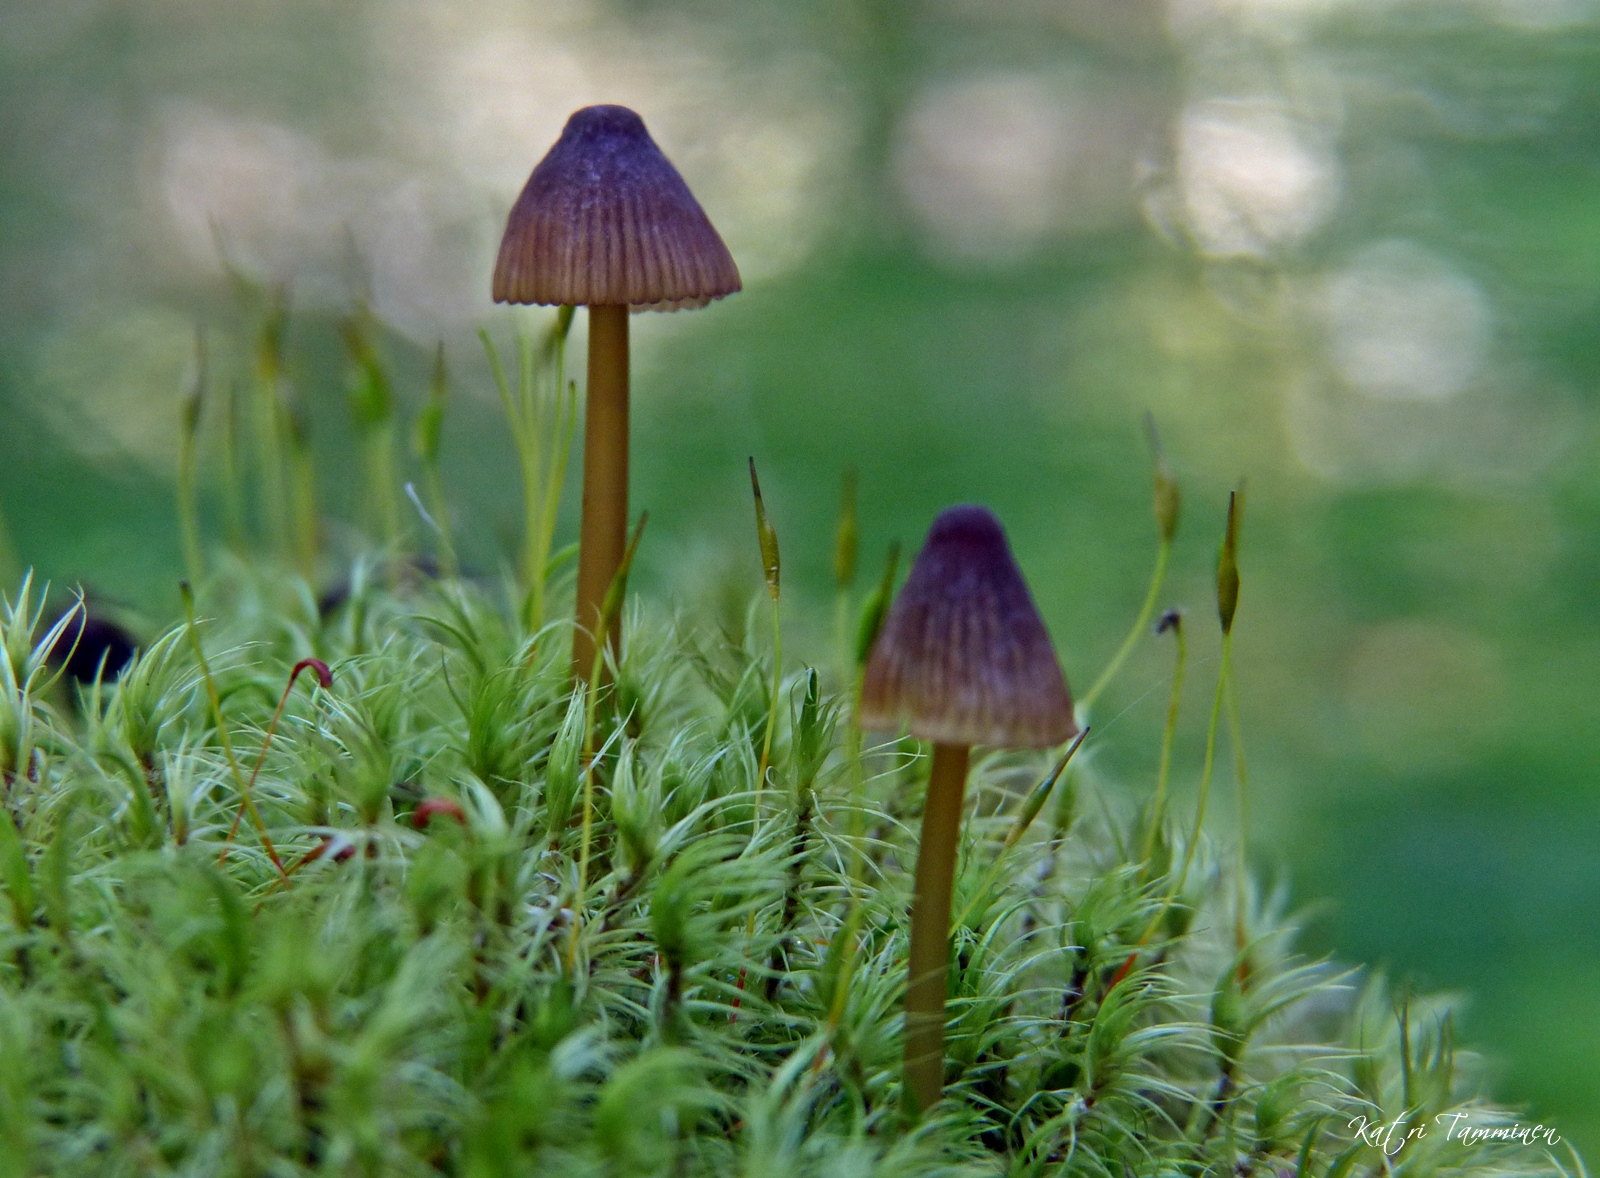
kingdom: Fungi
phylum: Basidiomycota
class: Agaricomycetes
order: Agaricales
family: Mycenaceae
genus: Mycena
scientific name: Mycena viridimarginata
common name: Olive edge bonnet
